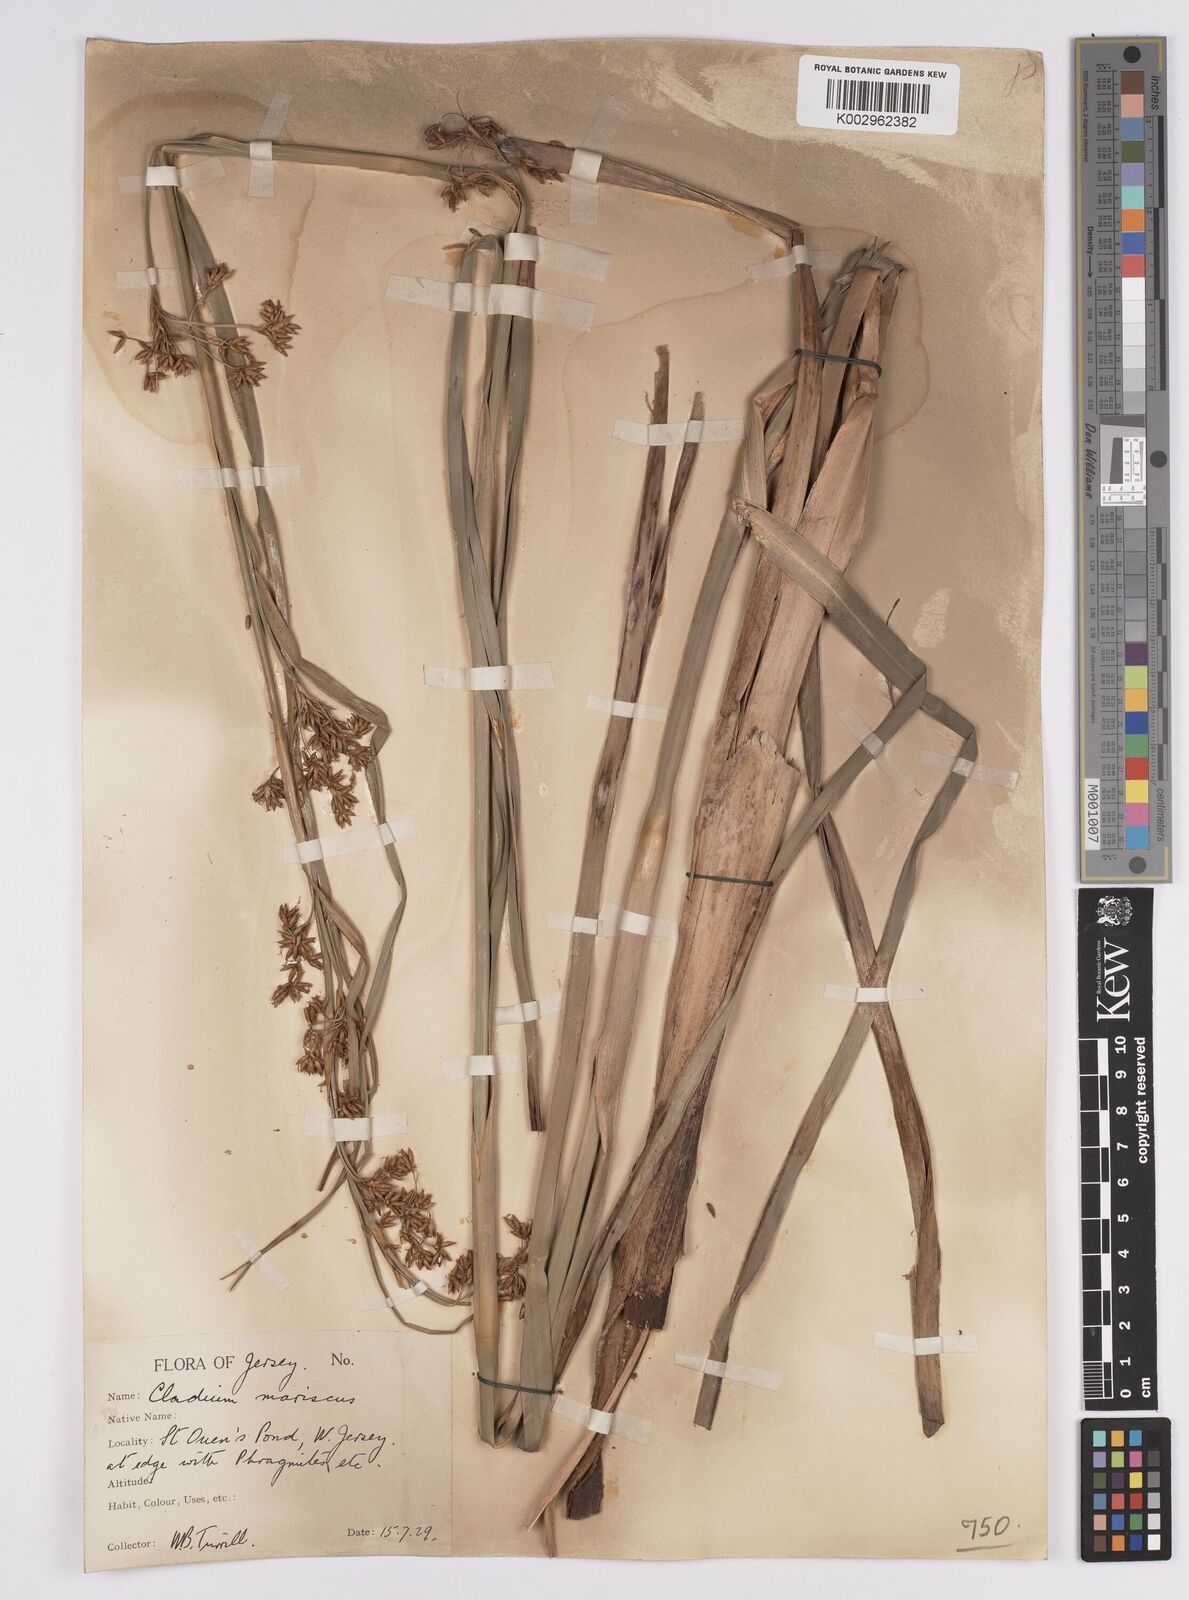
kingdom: Plantae
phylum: Tracheophyta
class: Liliopsida
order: Poales
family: Cyperaceae
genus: Cladium
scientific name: Cladium mariscus
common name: Great fen-sedge
